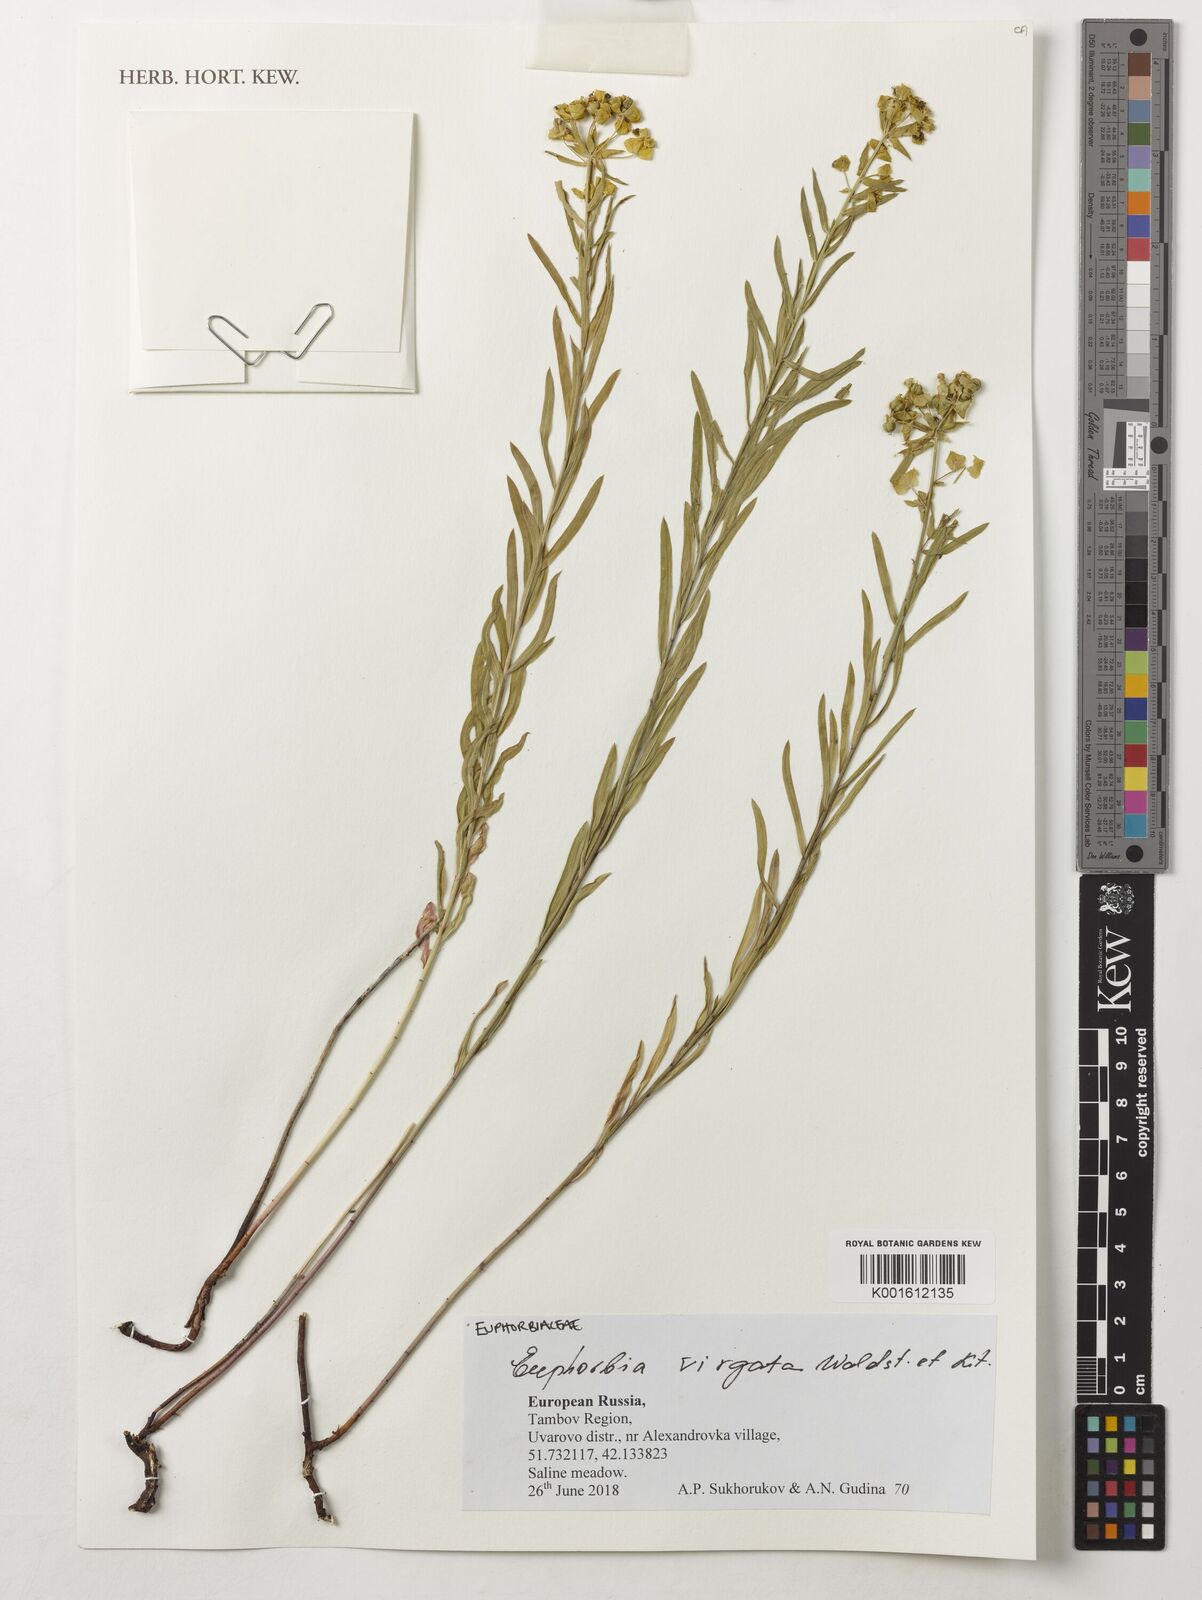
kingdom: Plantae
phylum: Tracheophyta
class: Magnoliopsida
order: Malpighiales
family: Euphorbiaceae
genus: Euphorbia
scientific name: Euphorbia virgata
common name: Leafy spurge
